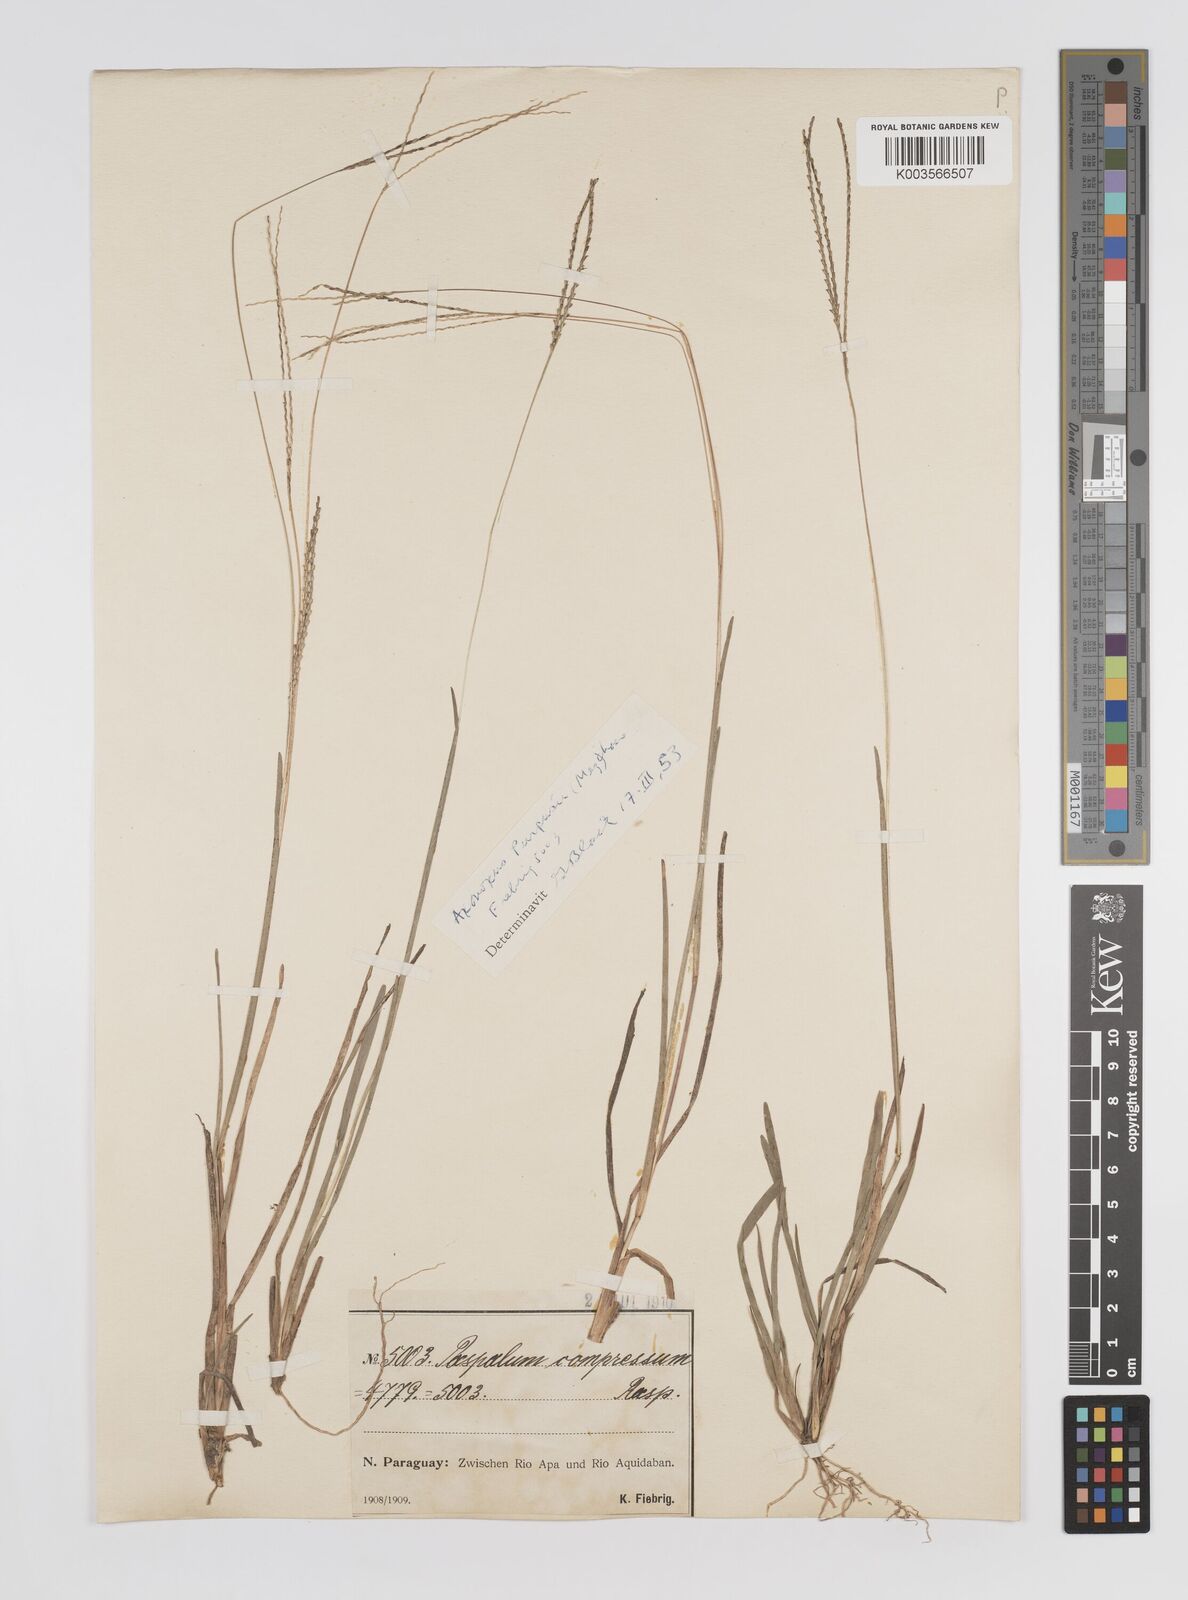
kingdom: Plantae
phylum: Tracheophyta
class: Liliopsida
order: Poales
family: Poaceae
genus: Axonopus
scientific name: Axonopus purpusii
